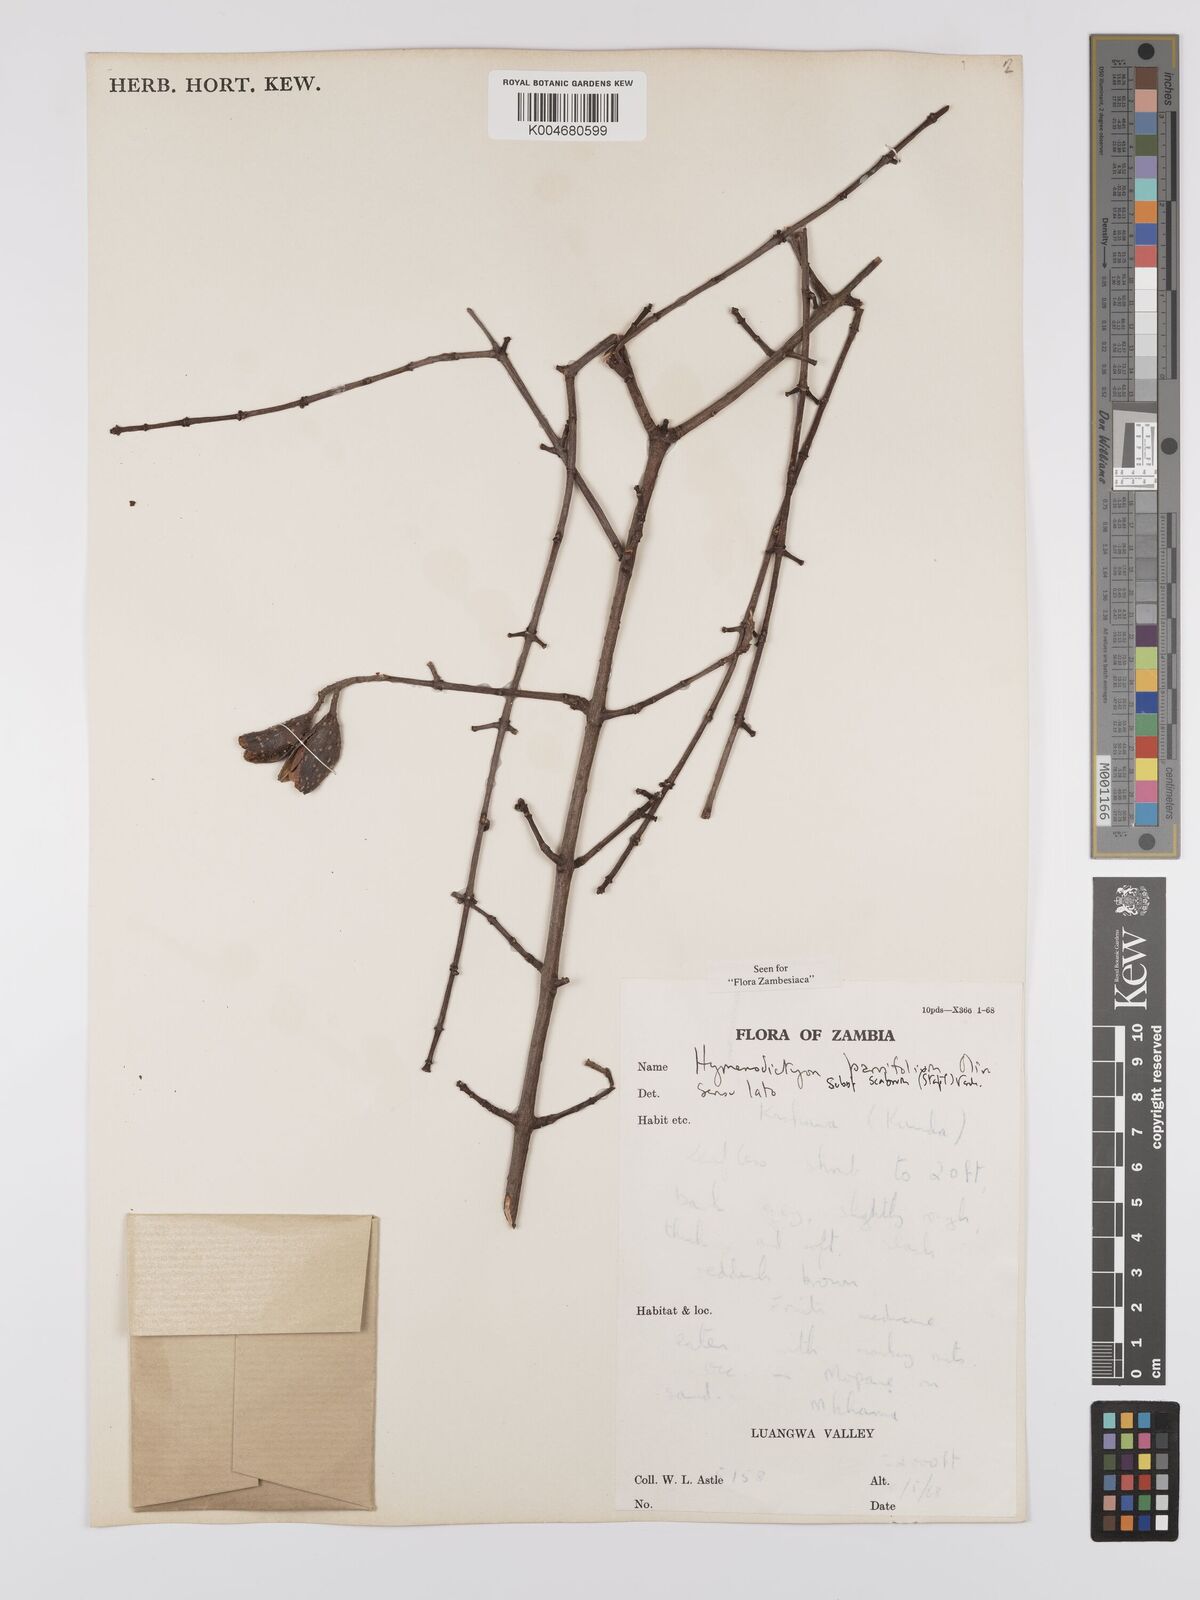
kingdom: Plantae
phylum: Tracheophyta
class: Magnoliopsida
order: Gentianales
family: Rubiaceae
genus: Hymenodictyon
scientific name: Hymenodictyon scabrum
